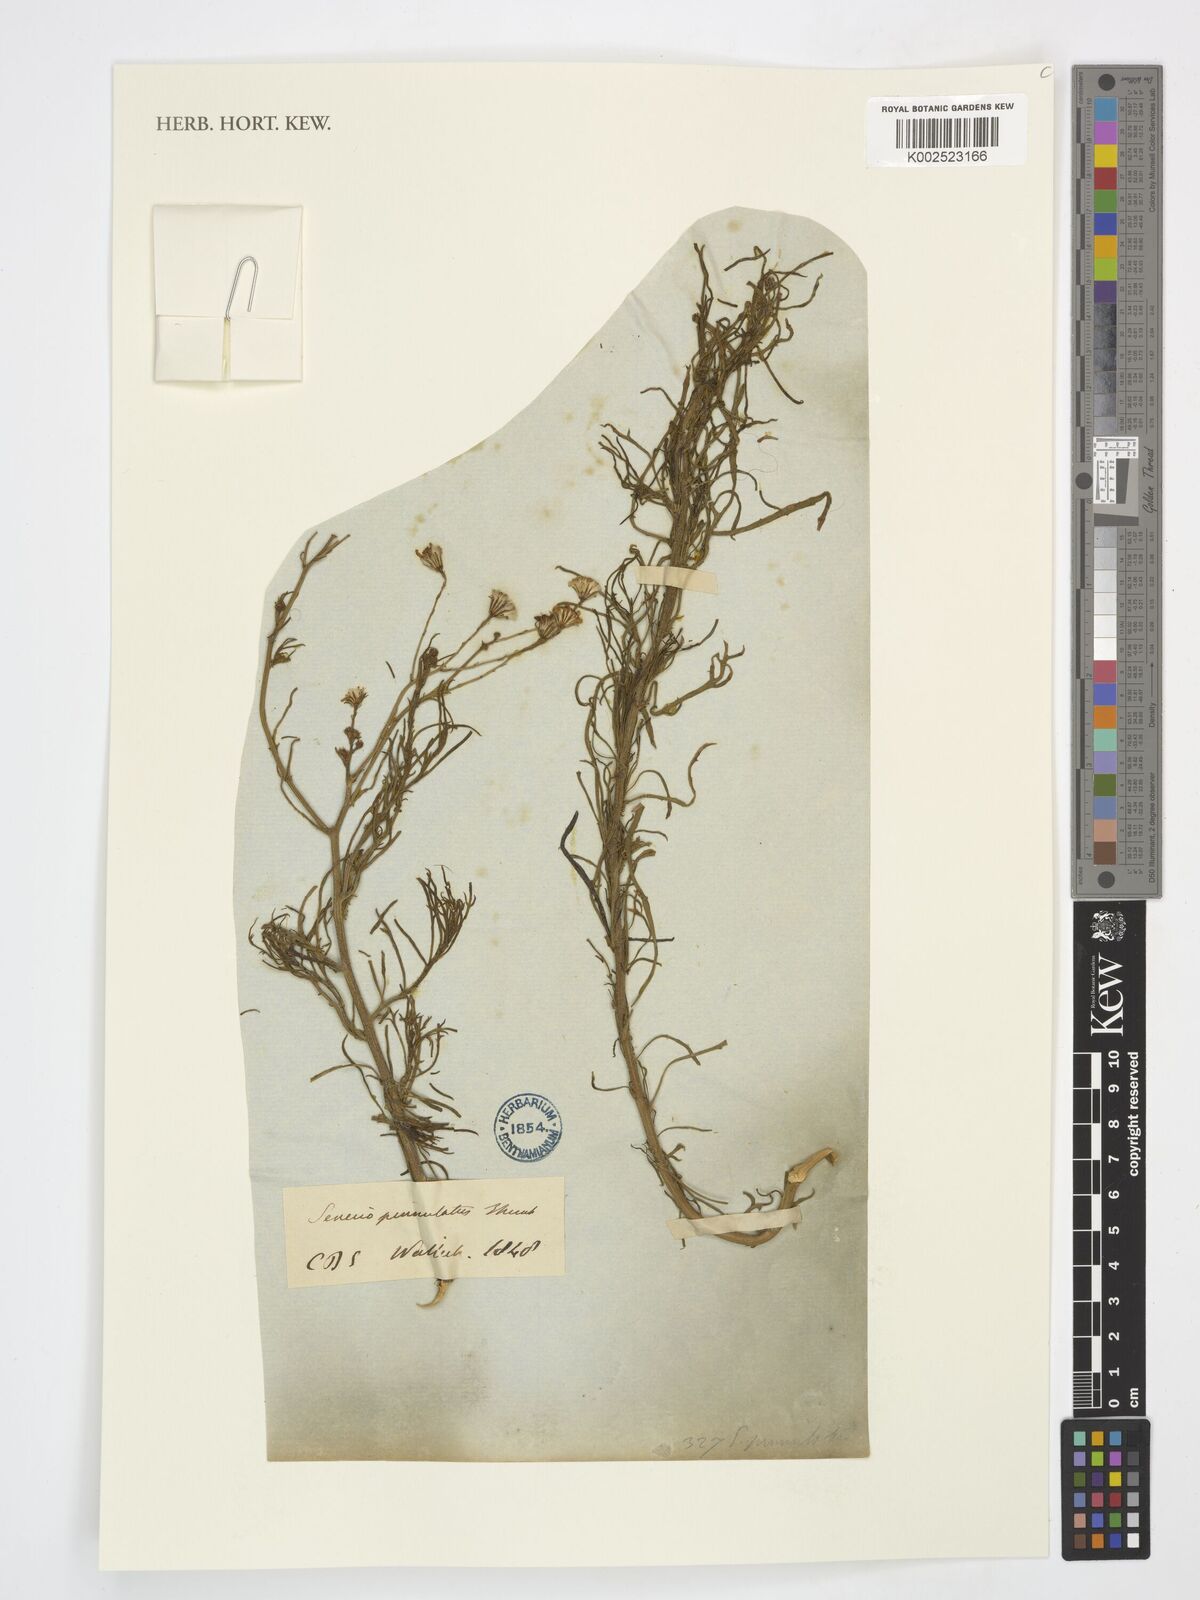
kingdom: Plantae
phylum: Tracheophyta
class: Magnoliopsida
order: Asterales
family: Asteraceae
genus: Senecio
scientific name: Senecio paniculatus
